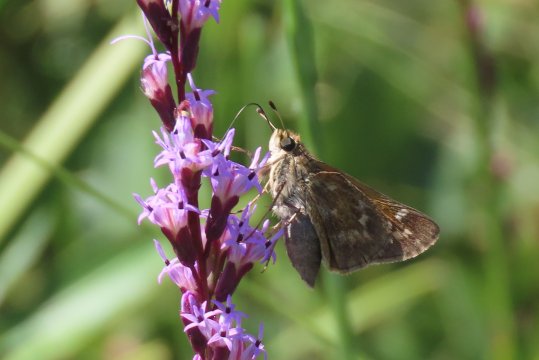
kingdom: Animalia
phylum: Arthropoda
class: Insecta
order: Lepidoptera
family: Hesperiidae
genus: Atalopedes
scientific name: Atalopedes campestris
